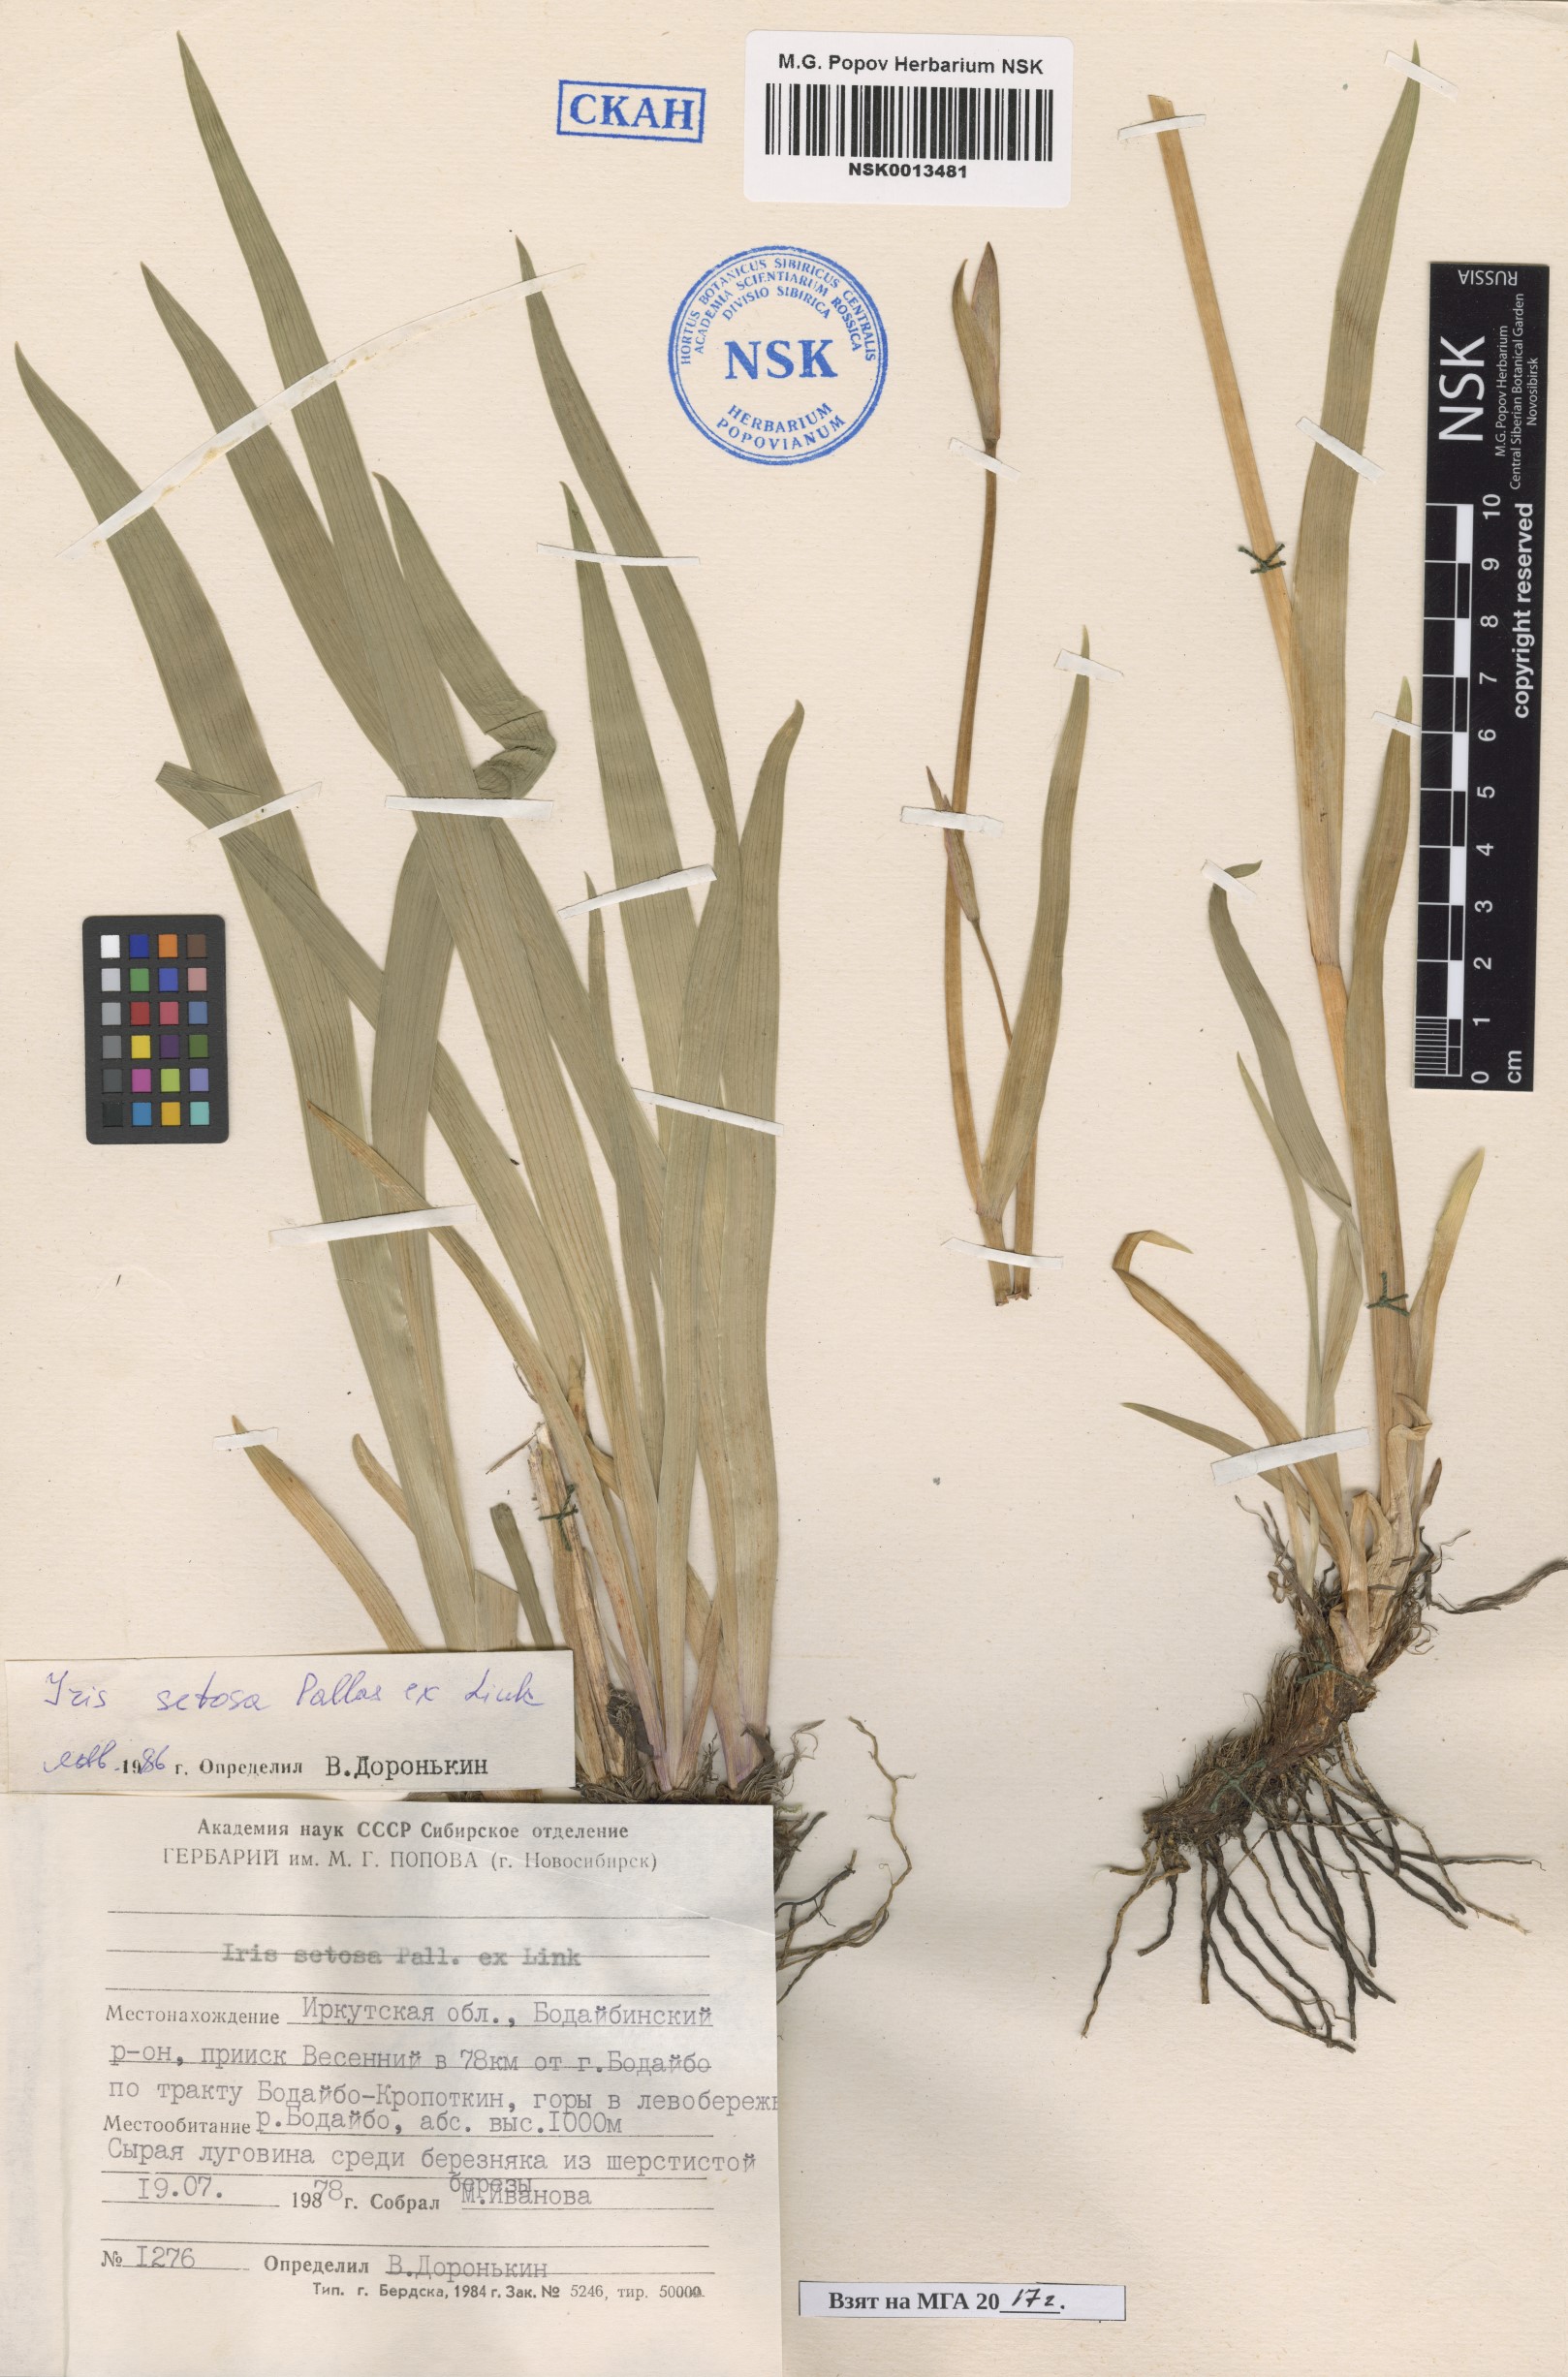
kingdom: Plantae
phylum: Tracheophyta
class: Liliopsida
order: Asparagales
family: Iridaceae
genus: Iris
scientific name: Iris setosa
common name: Arctic blue flag
